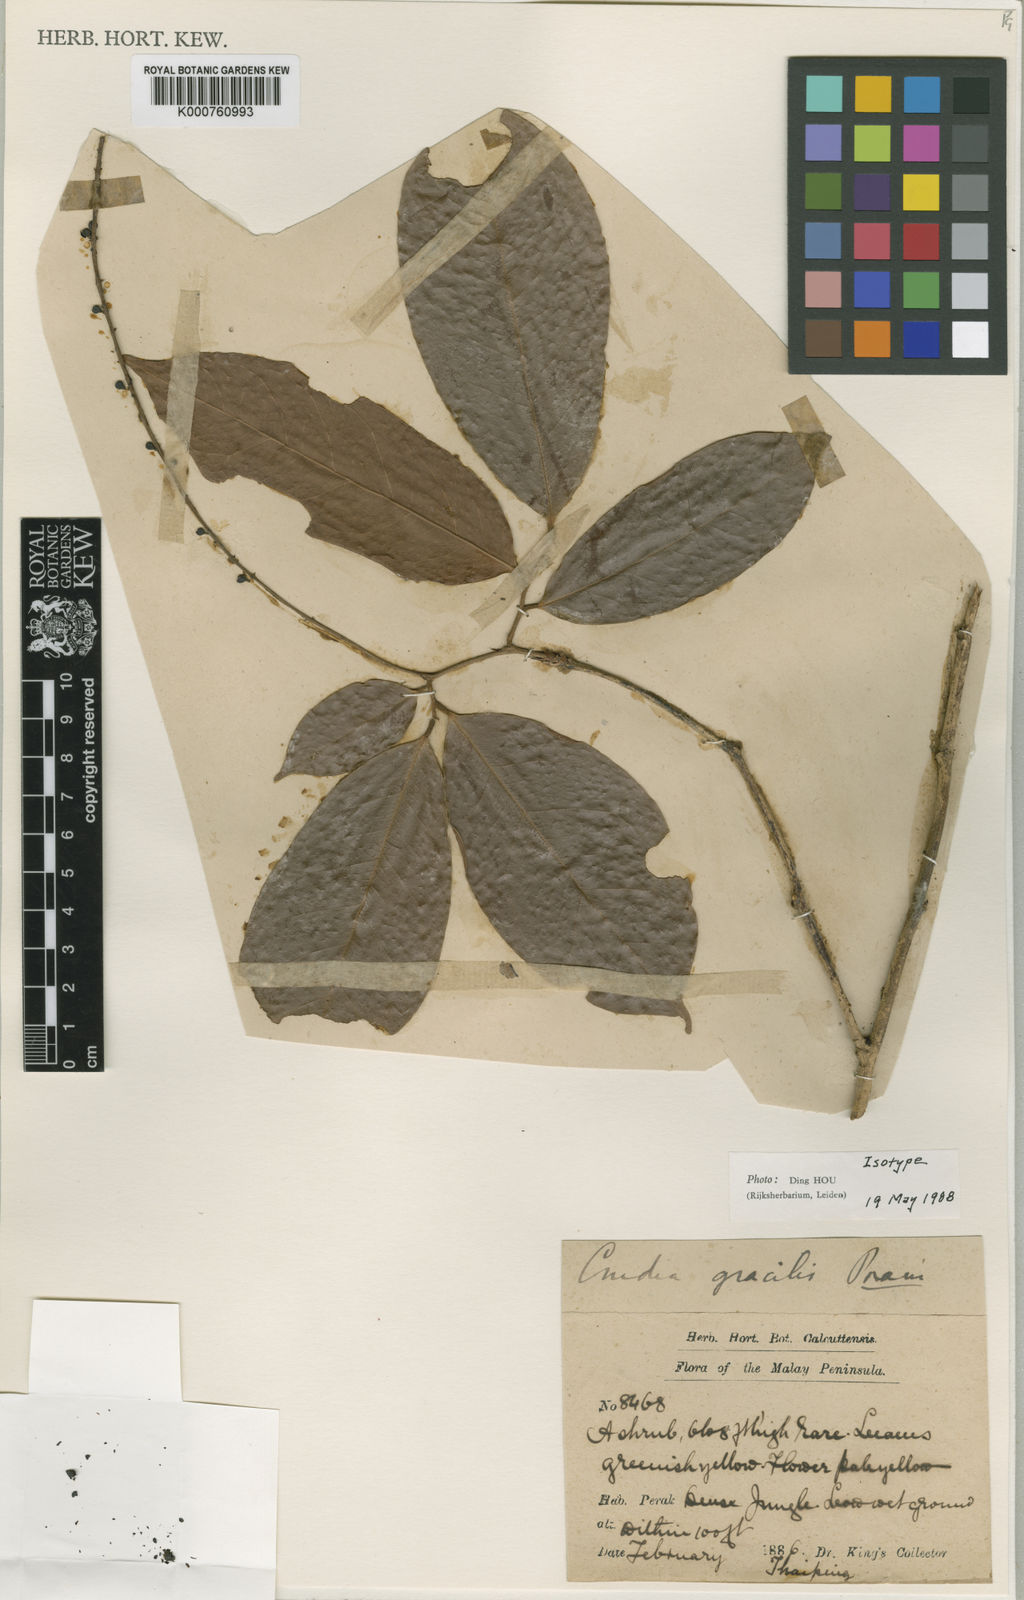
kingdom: Plantae
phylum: Tracheophyta
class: Magnoliopsida
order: Fabales
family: Fabaceae
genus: Crudia
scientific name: Crudia gracilis
